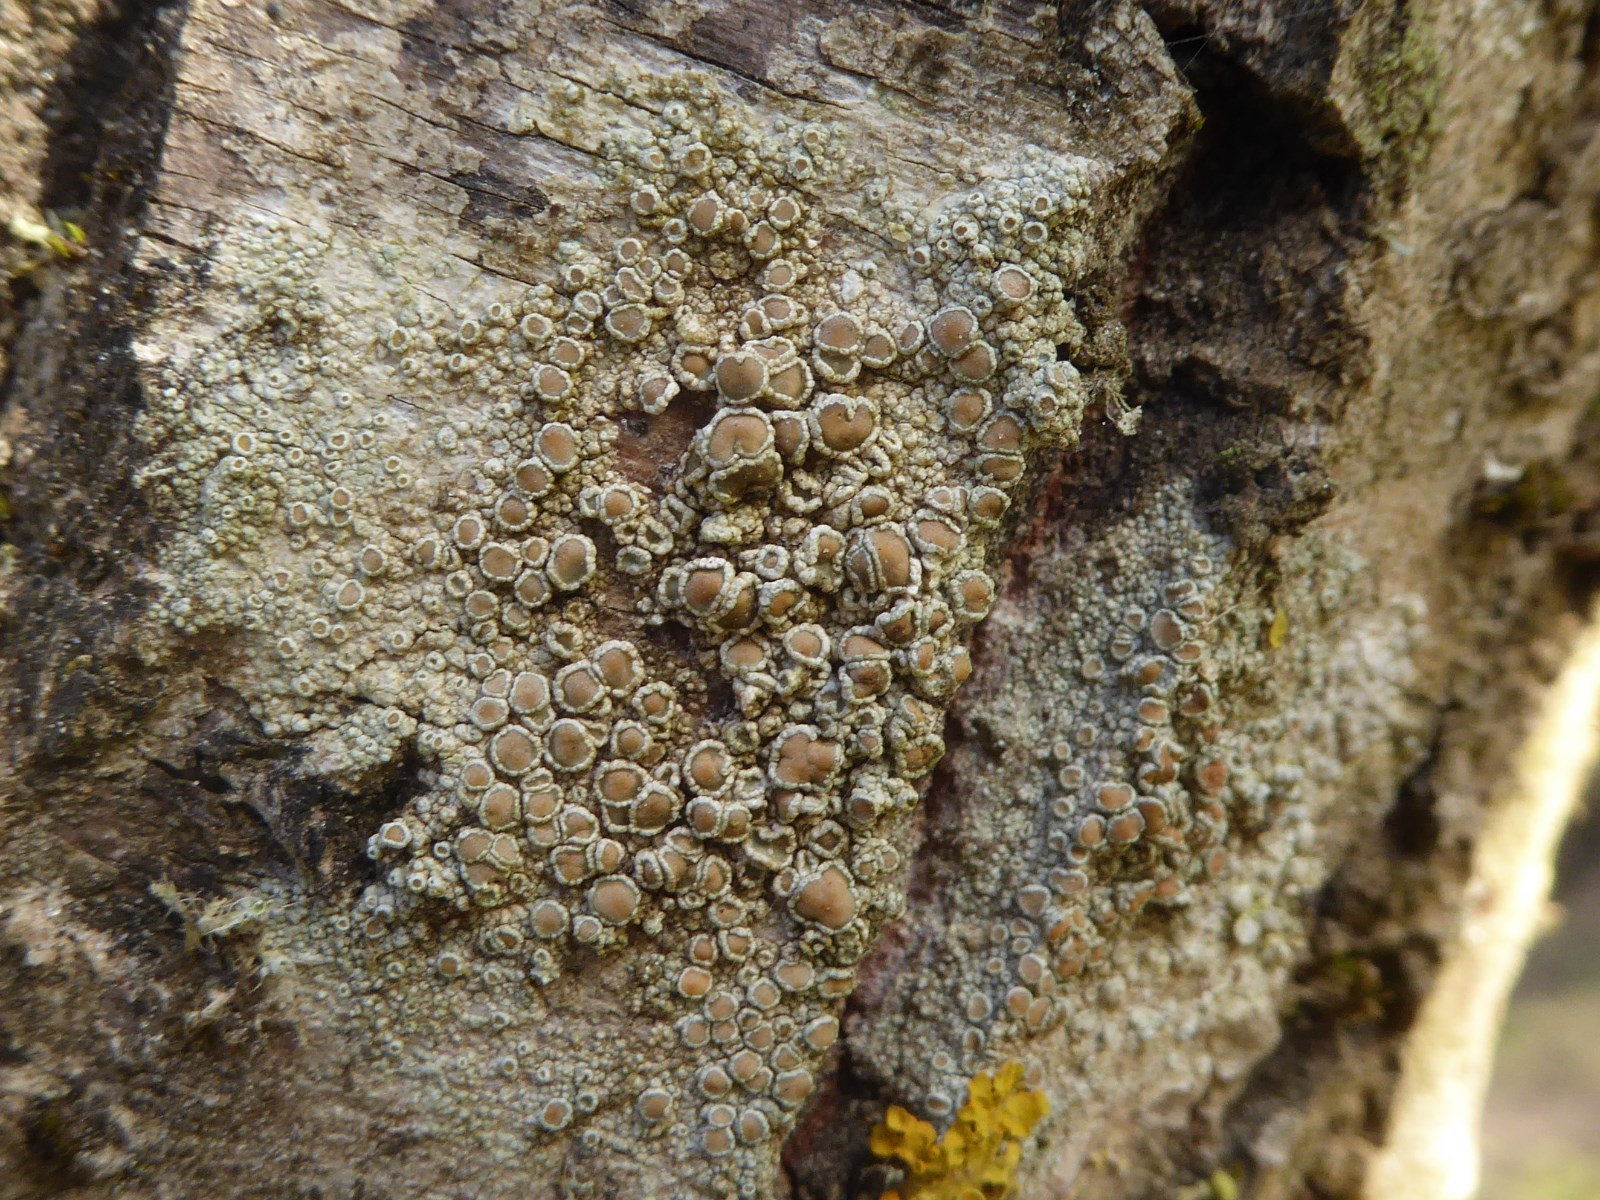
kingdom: Fungi
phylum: Ascomycota
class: Lecanoromycetes
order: Lecanorales
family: Lecanoraceae
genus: Lecanora
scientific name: Lecanora chlarotera
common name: brun kantskivelav
